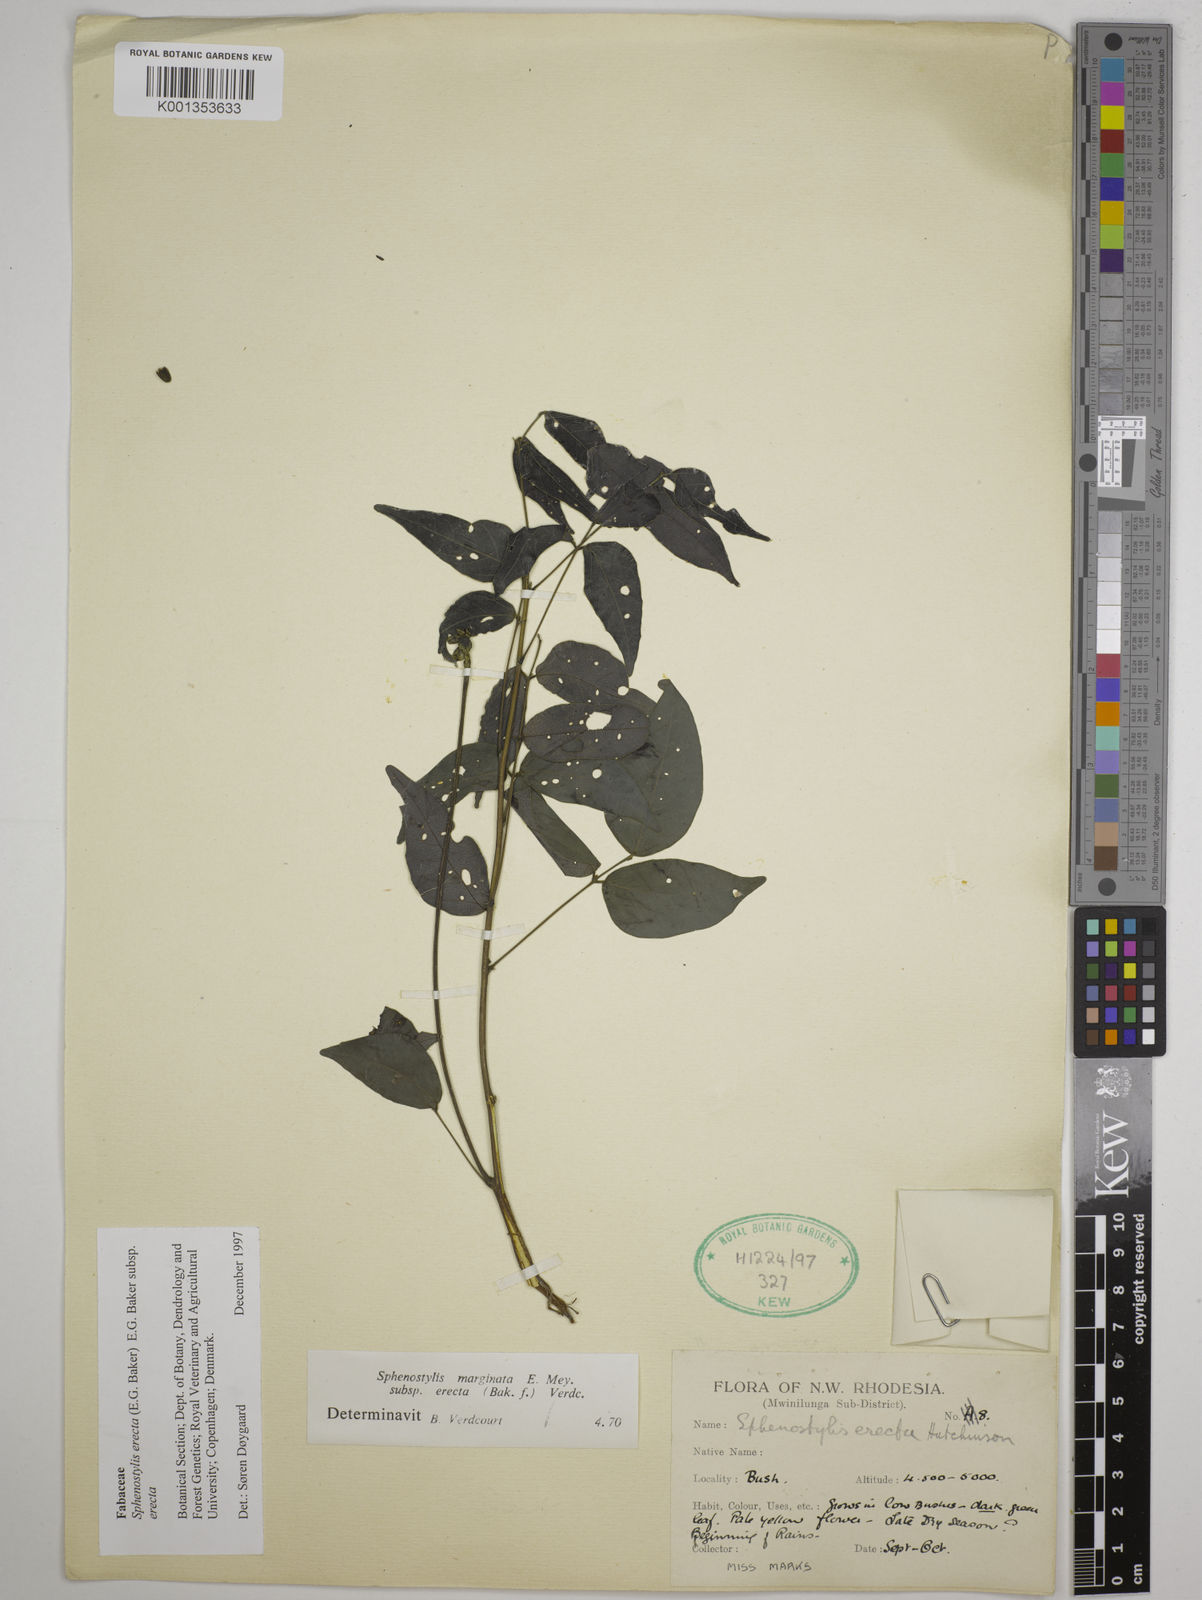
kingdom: Plantae
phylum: Tracheophyta
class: Magnoliopsida
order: Fabales
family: Fabaceae
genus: Sphenostylis
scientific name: Sphenostylis erecta
